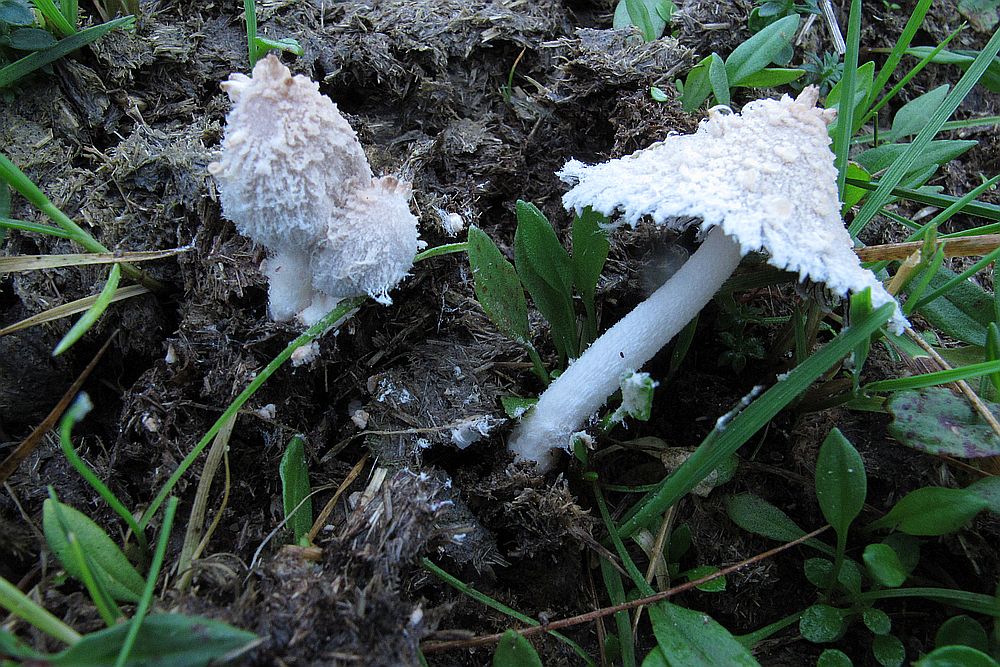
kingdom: Fungi
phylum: Basidiomycota
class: Agaricomycetes
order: Agaricales
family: Psathyrellaceae
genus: Coprinopsis
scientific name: Coprinopsis pseudonivea
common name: pudret blækhat
